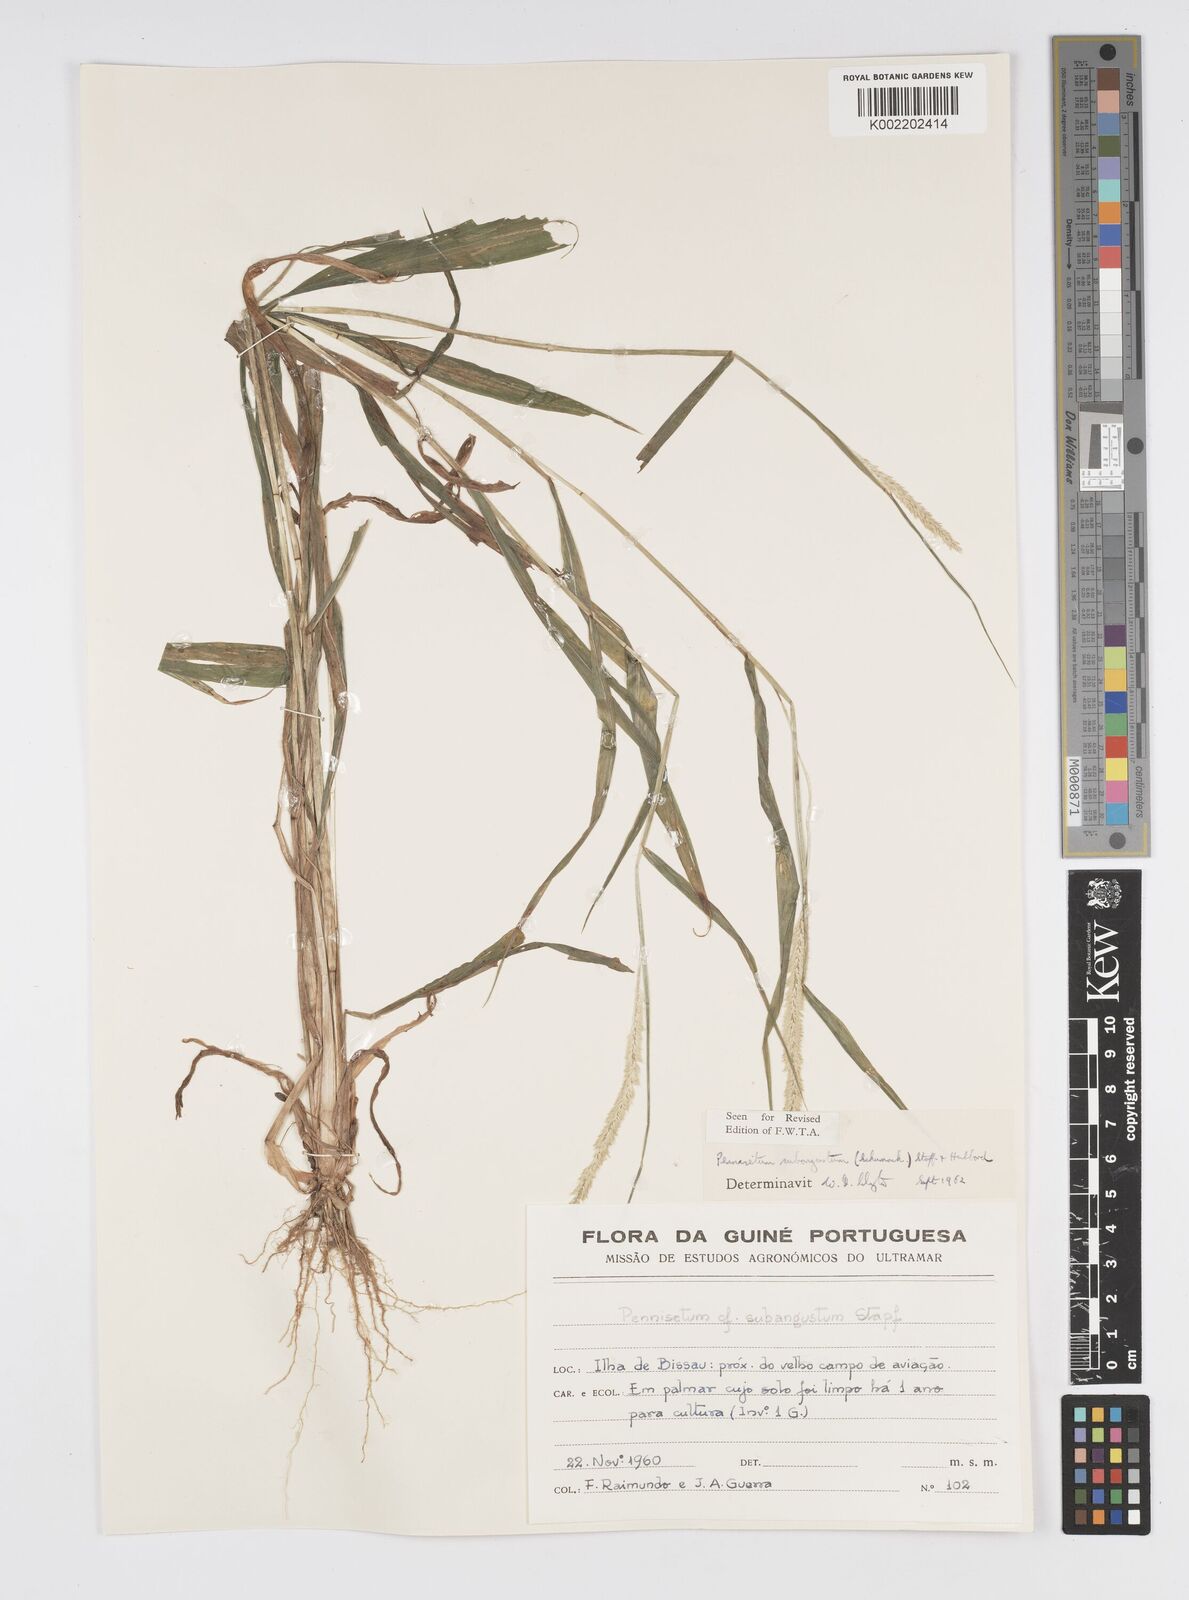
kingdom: Plantae
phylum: Tracheophyta
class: Liliopsida
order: Poales
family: Poaceae
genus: Setaria
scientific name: Setaria parviflora
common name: Knotroot bristle-grass
